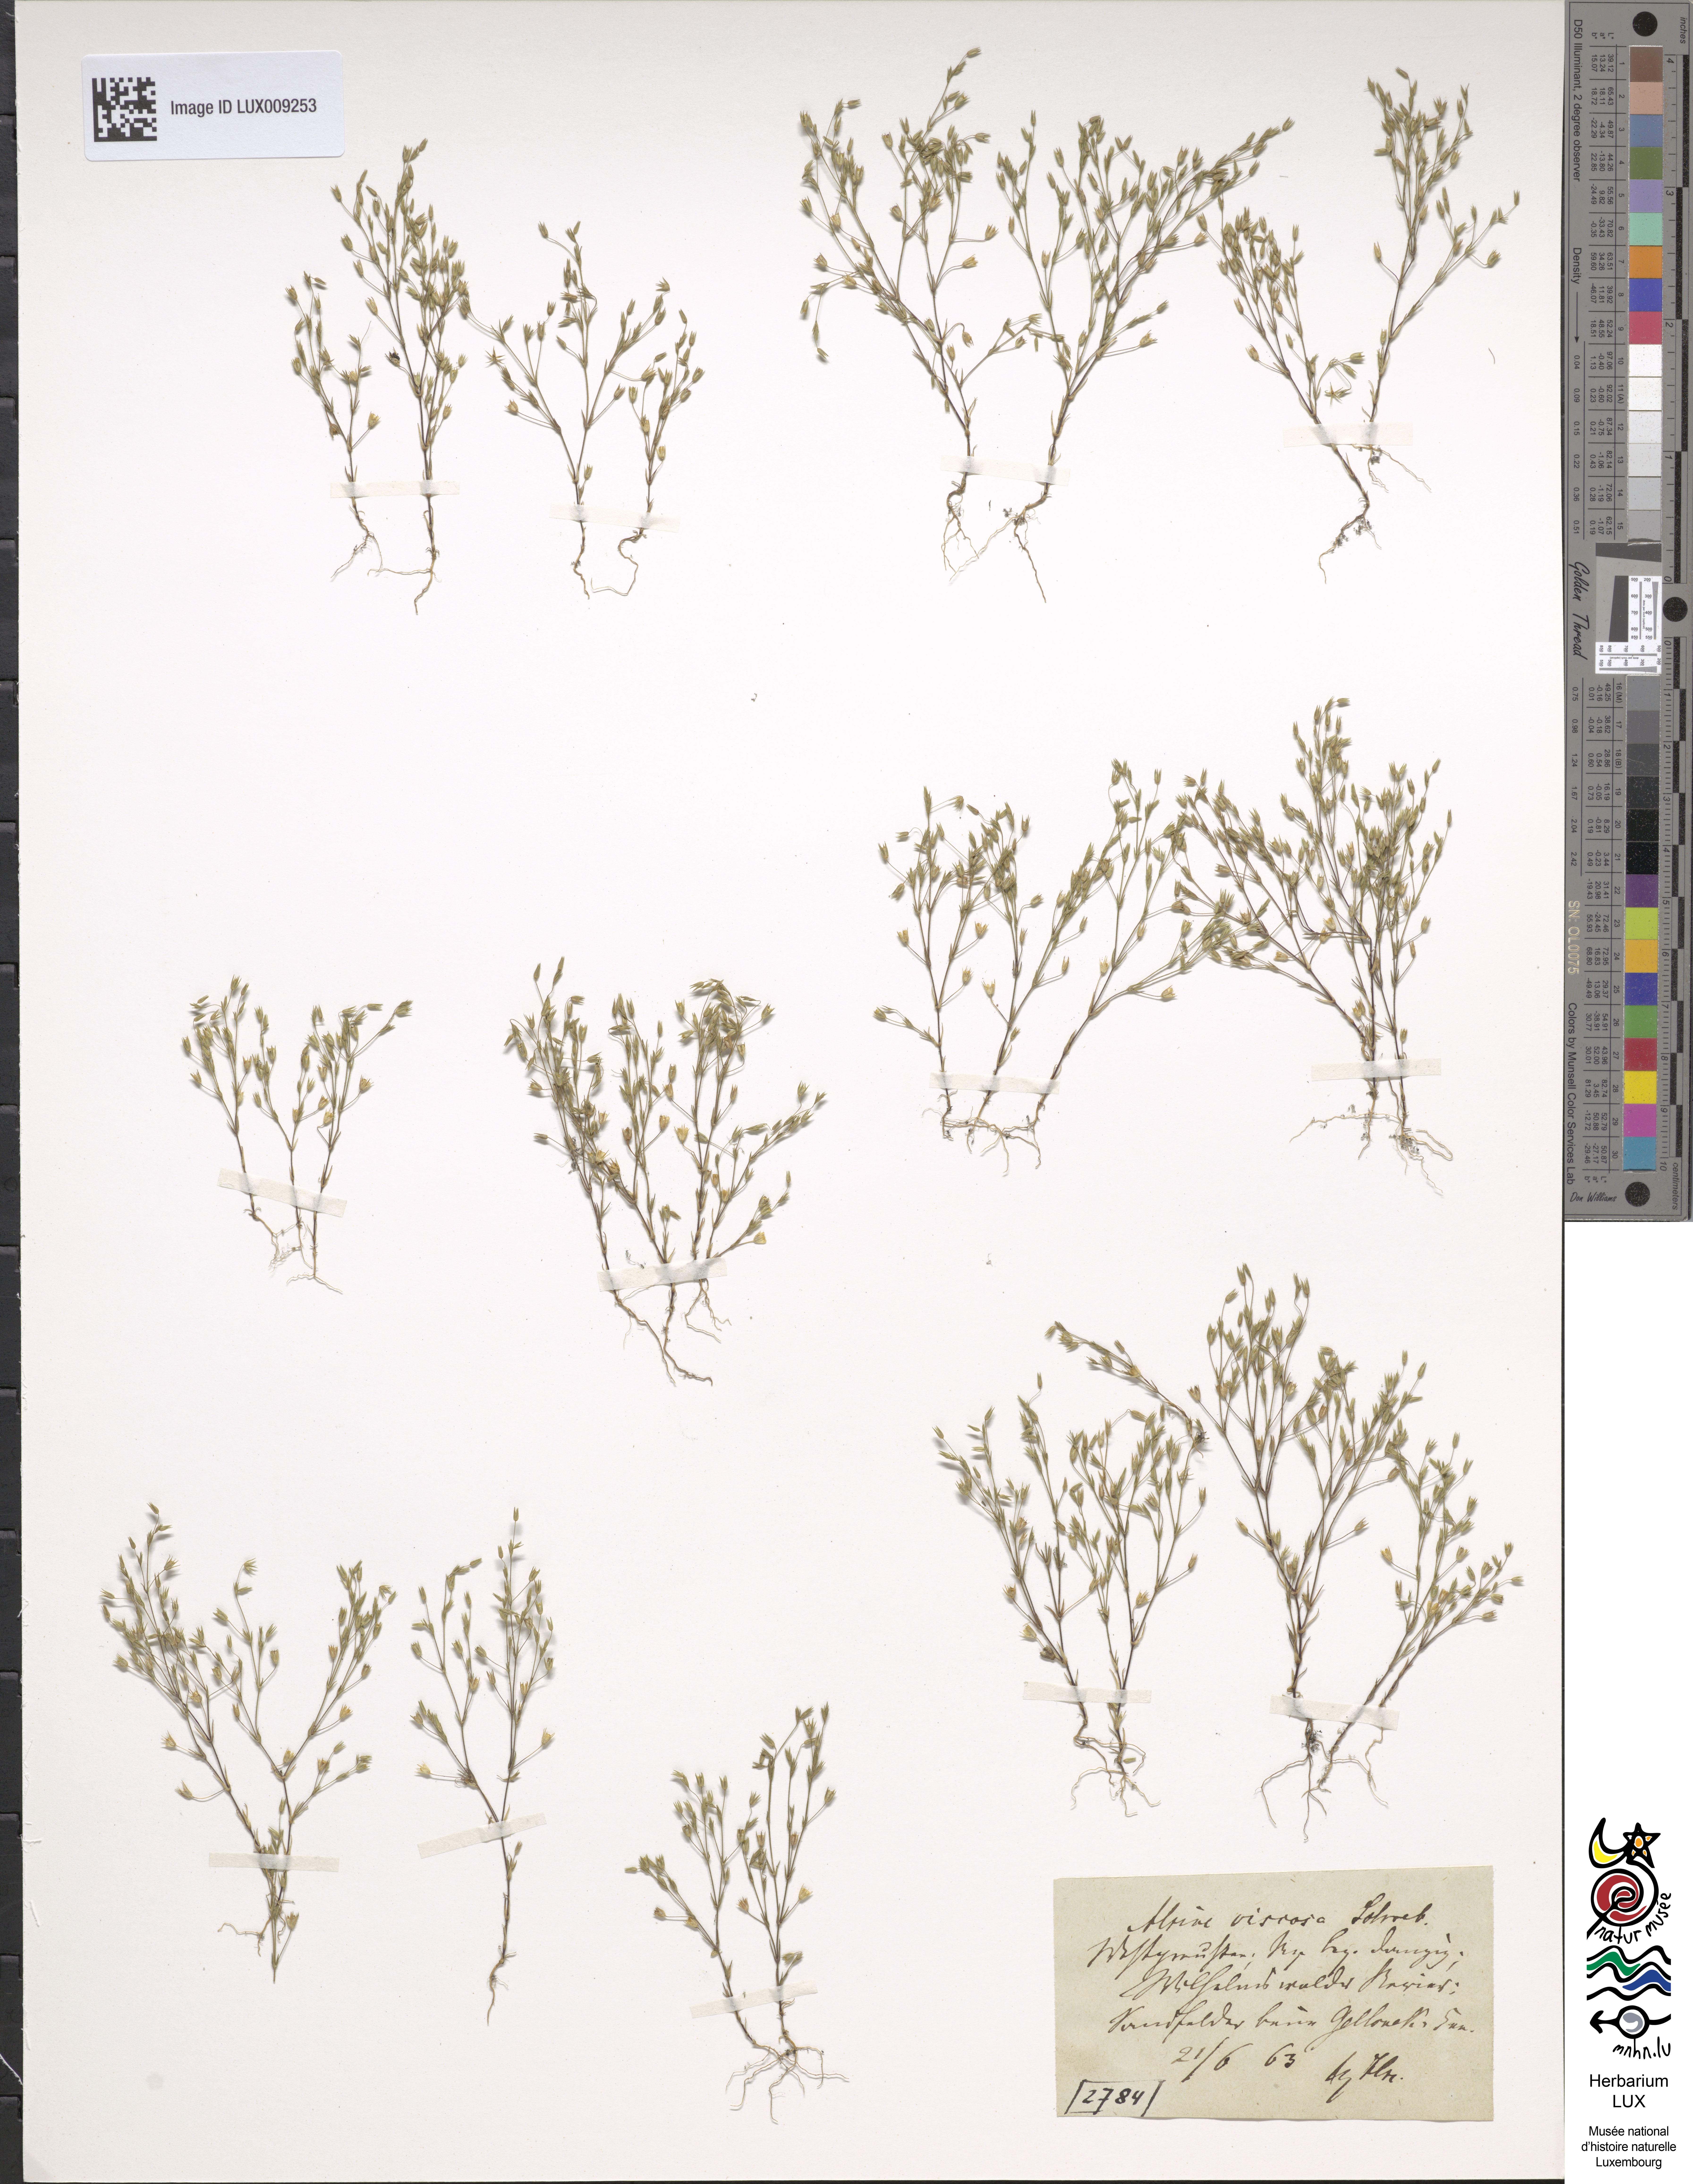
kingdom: Plantae
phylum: Tracheophyta
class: Magnoliopsida
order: Caryophyllales
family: Caryophyllaceae
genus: Sabulina
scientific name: Sabulina viscosa
